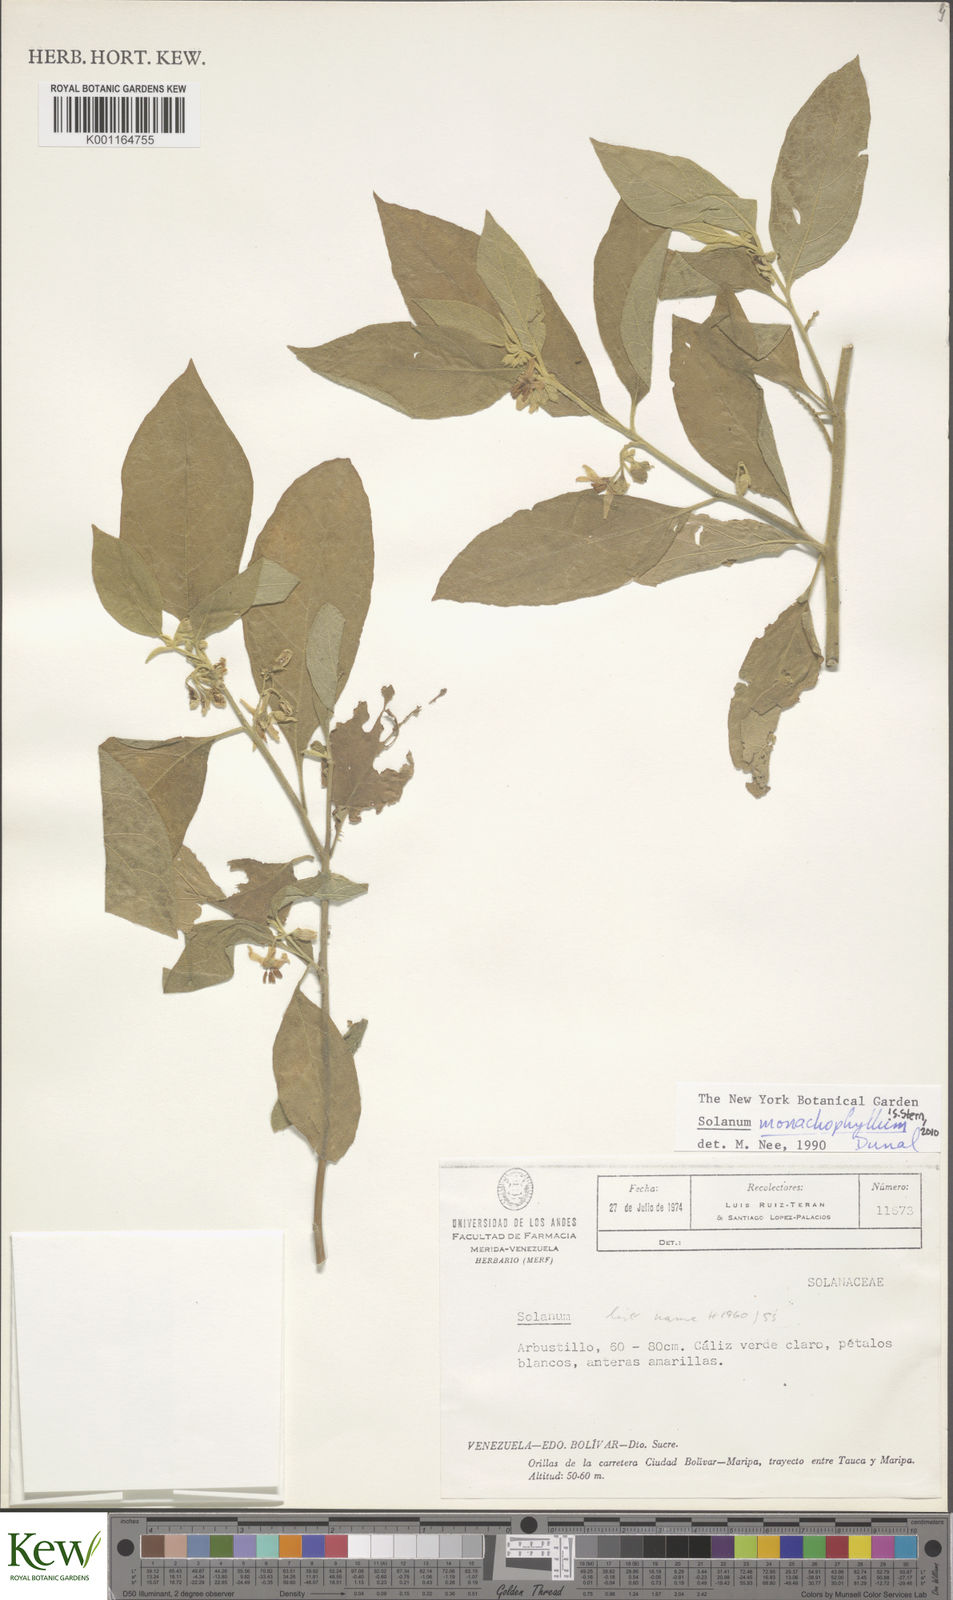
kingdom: Plantae
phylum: Tracheophyta
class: Magnoliopsida
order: Solanales
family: Solanaceae
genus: Solanum
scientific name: Solanum monachophyllum
